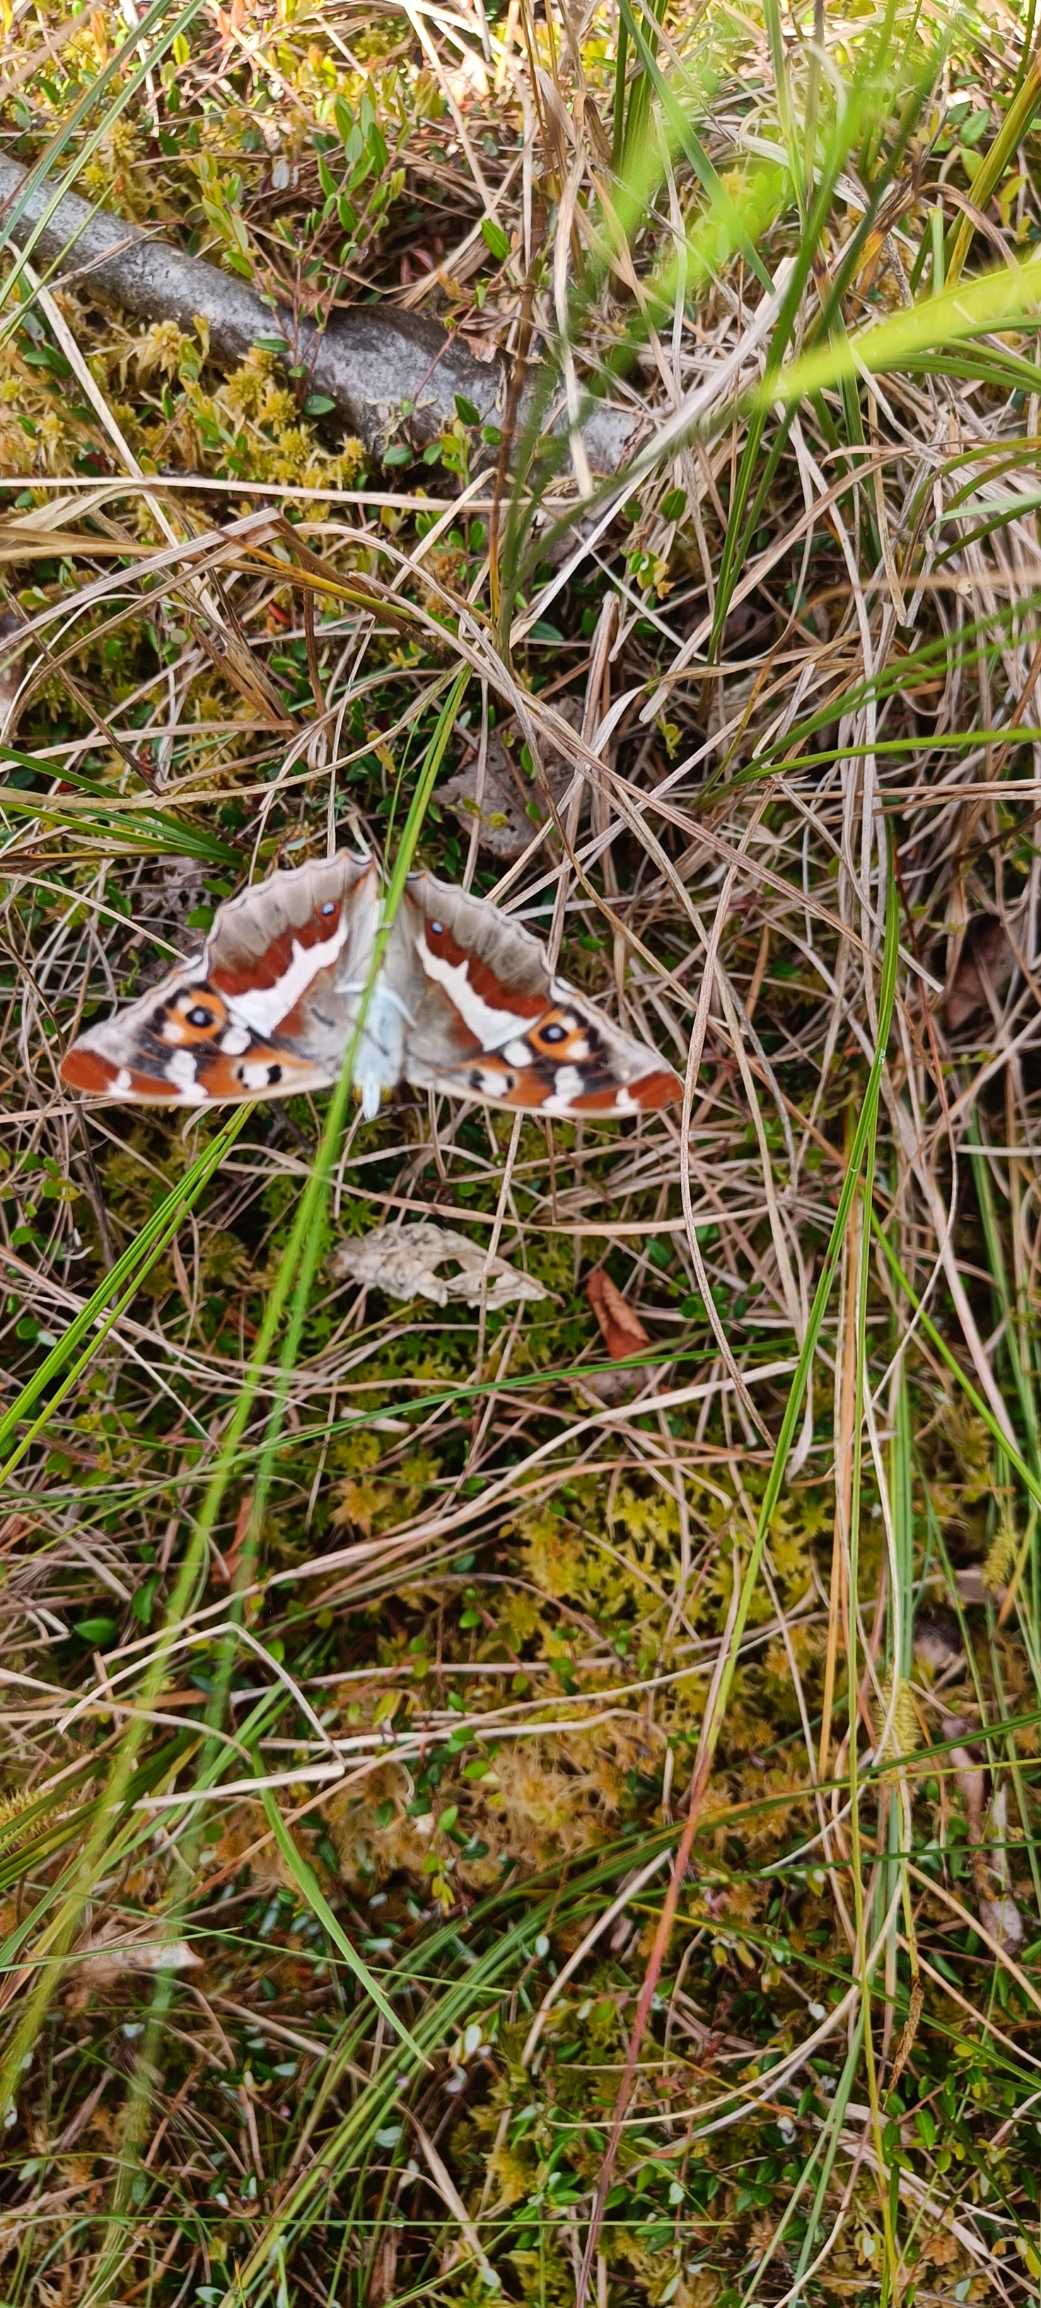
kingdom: Animalia
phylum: Arthropoda
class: Insecta
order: Lepidoptera
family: Nymphalidae
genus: Apatura
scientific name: Apatura iris
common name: Iris
